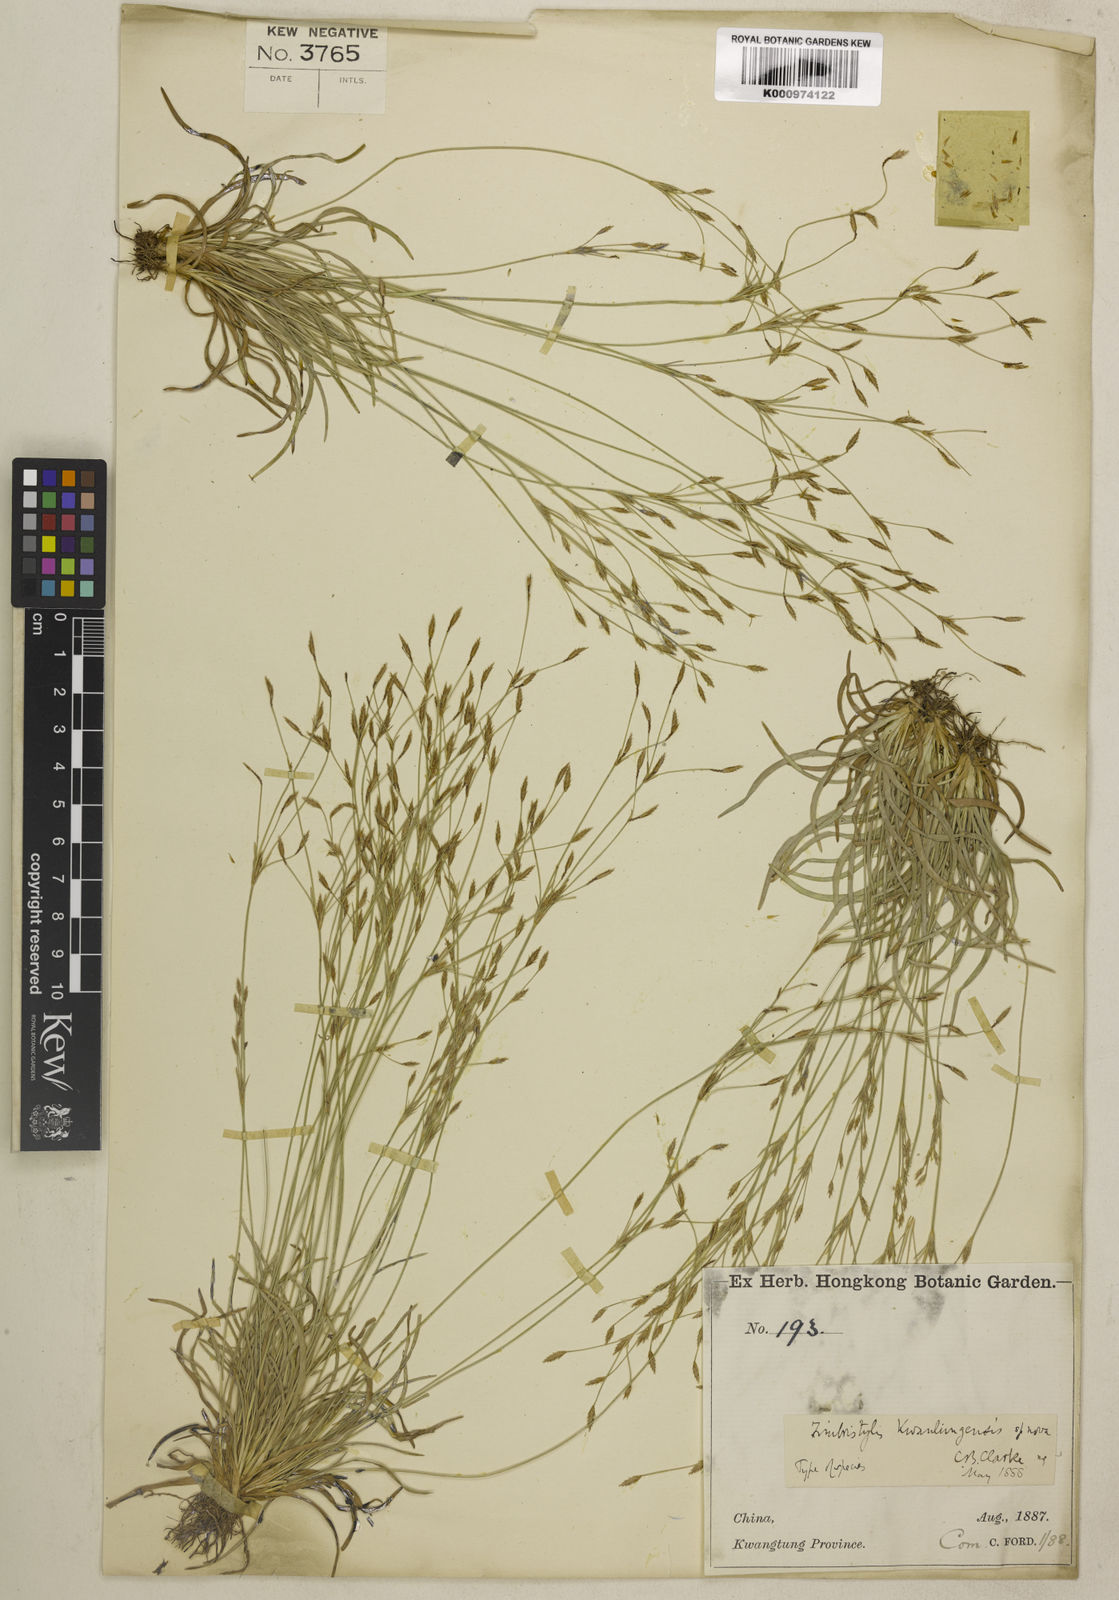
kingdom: Plantae
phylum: Tracheophyta
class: Liliopsida
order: Poales
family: Cyperaceae
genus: Fimbristylis
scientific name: Fimbristylis kwantungensis
